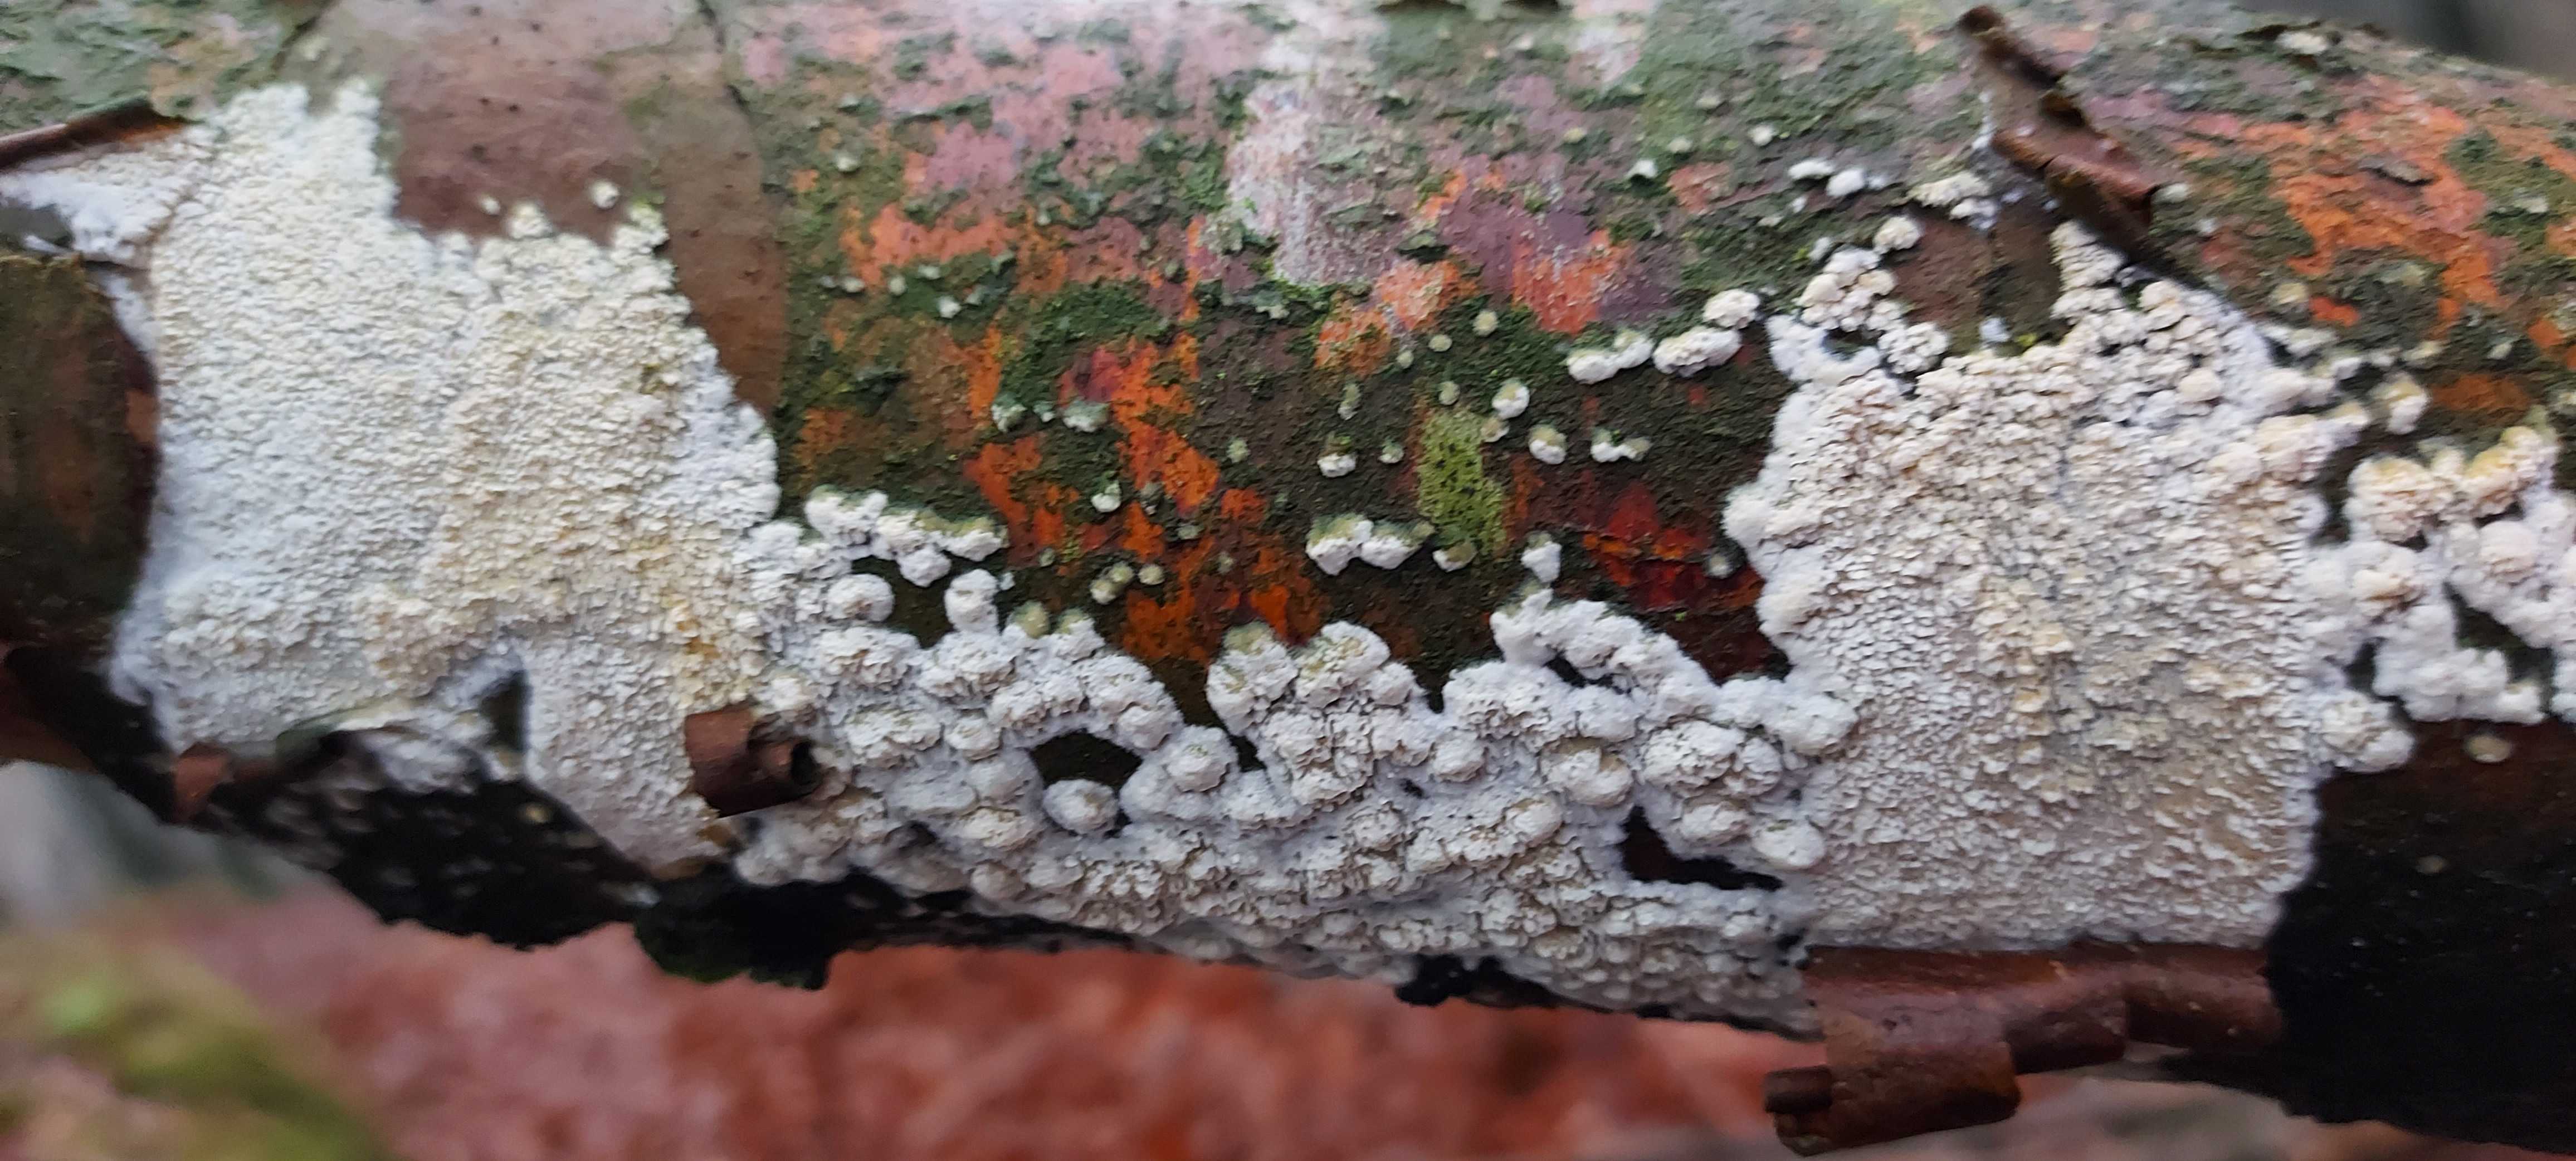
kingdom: Fungi
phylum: Basidiomycota
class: Agaricomycetes
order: Hymenochaetales
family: Schizoporaceae
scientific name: Schizoporaceae
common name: tandsvampfamilien
